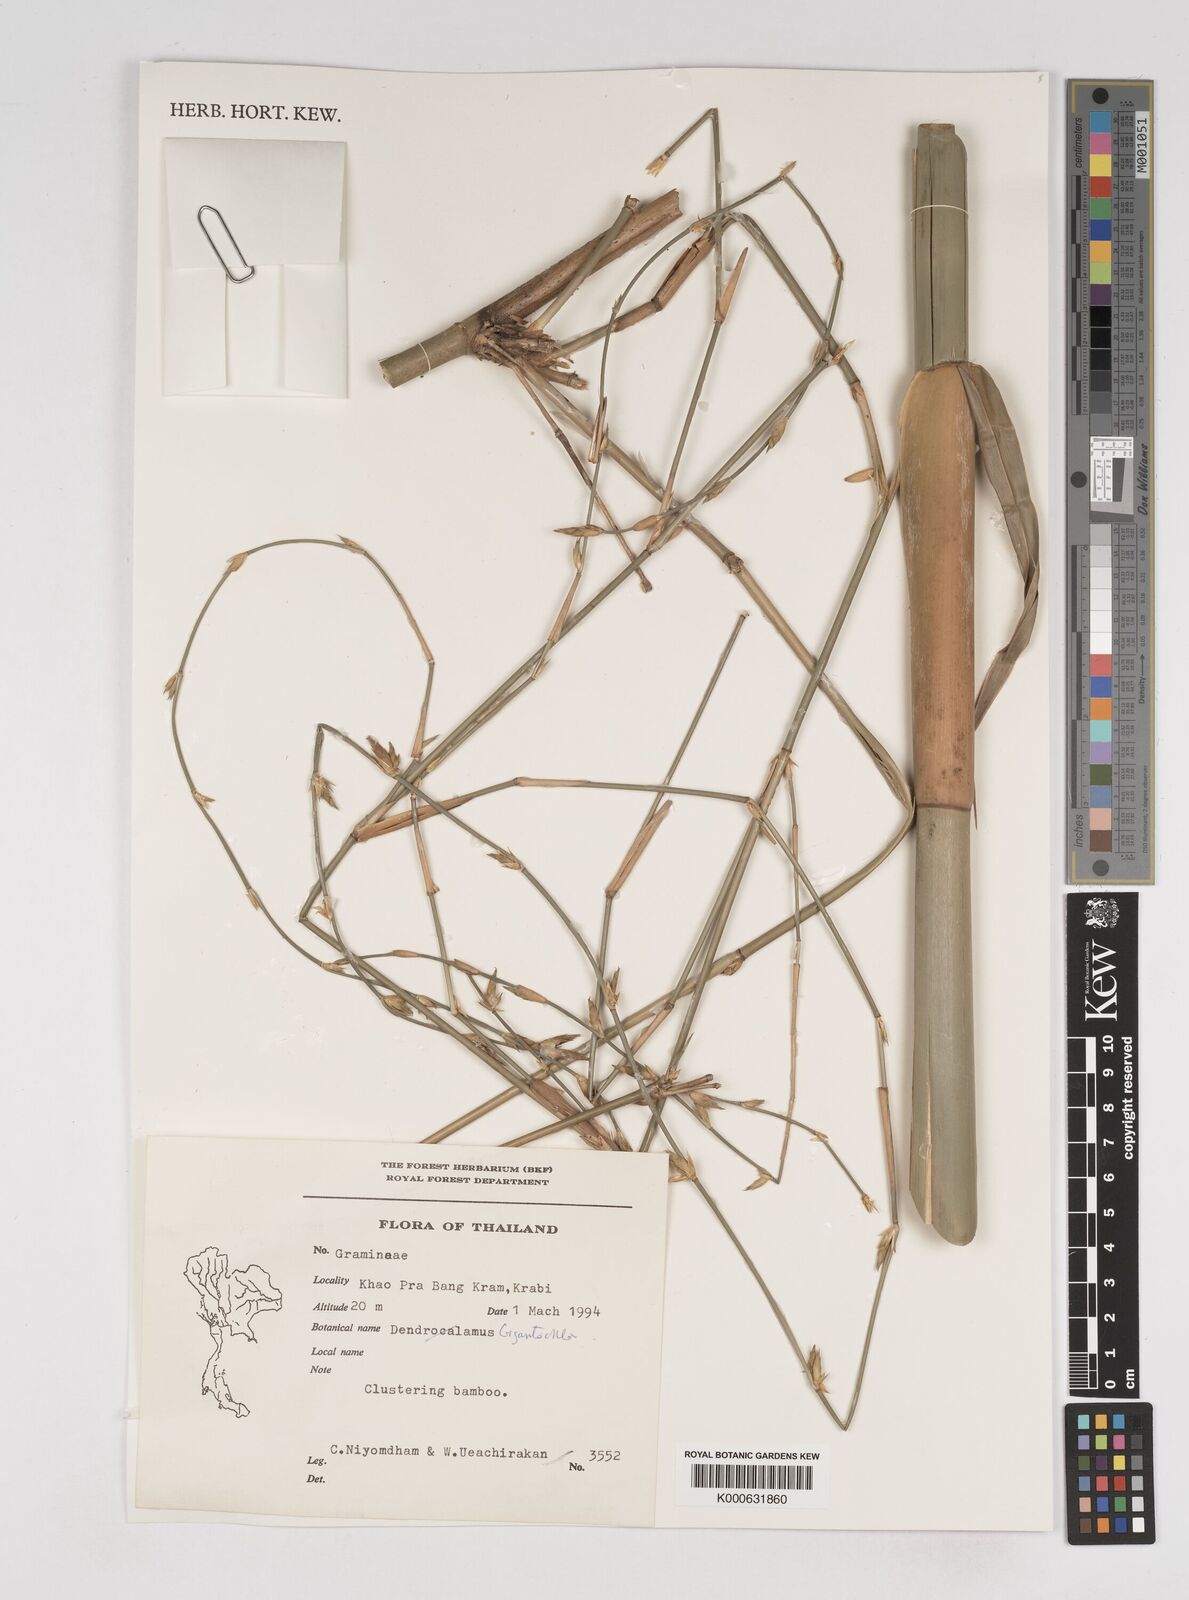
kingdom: Plantae
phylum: Tracheophyta
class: Liliopsida
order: Poales
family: Poaceae
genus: Gigantochloa
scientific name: Gigantochloa
